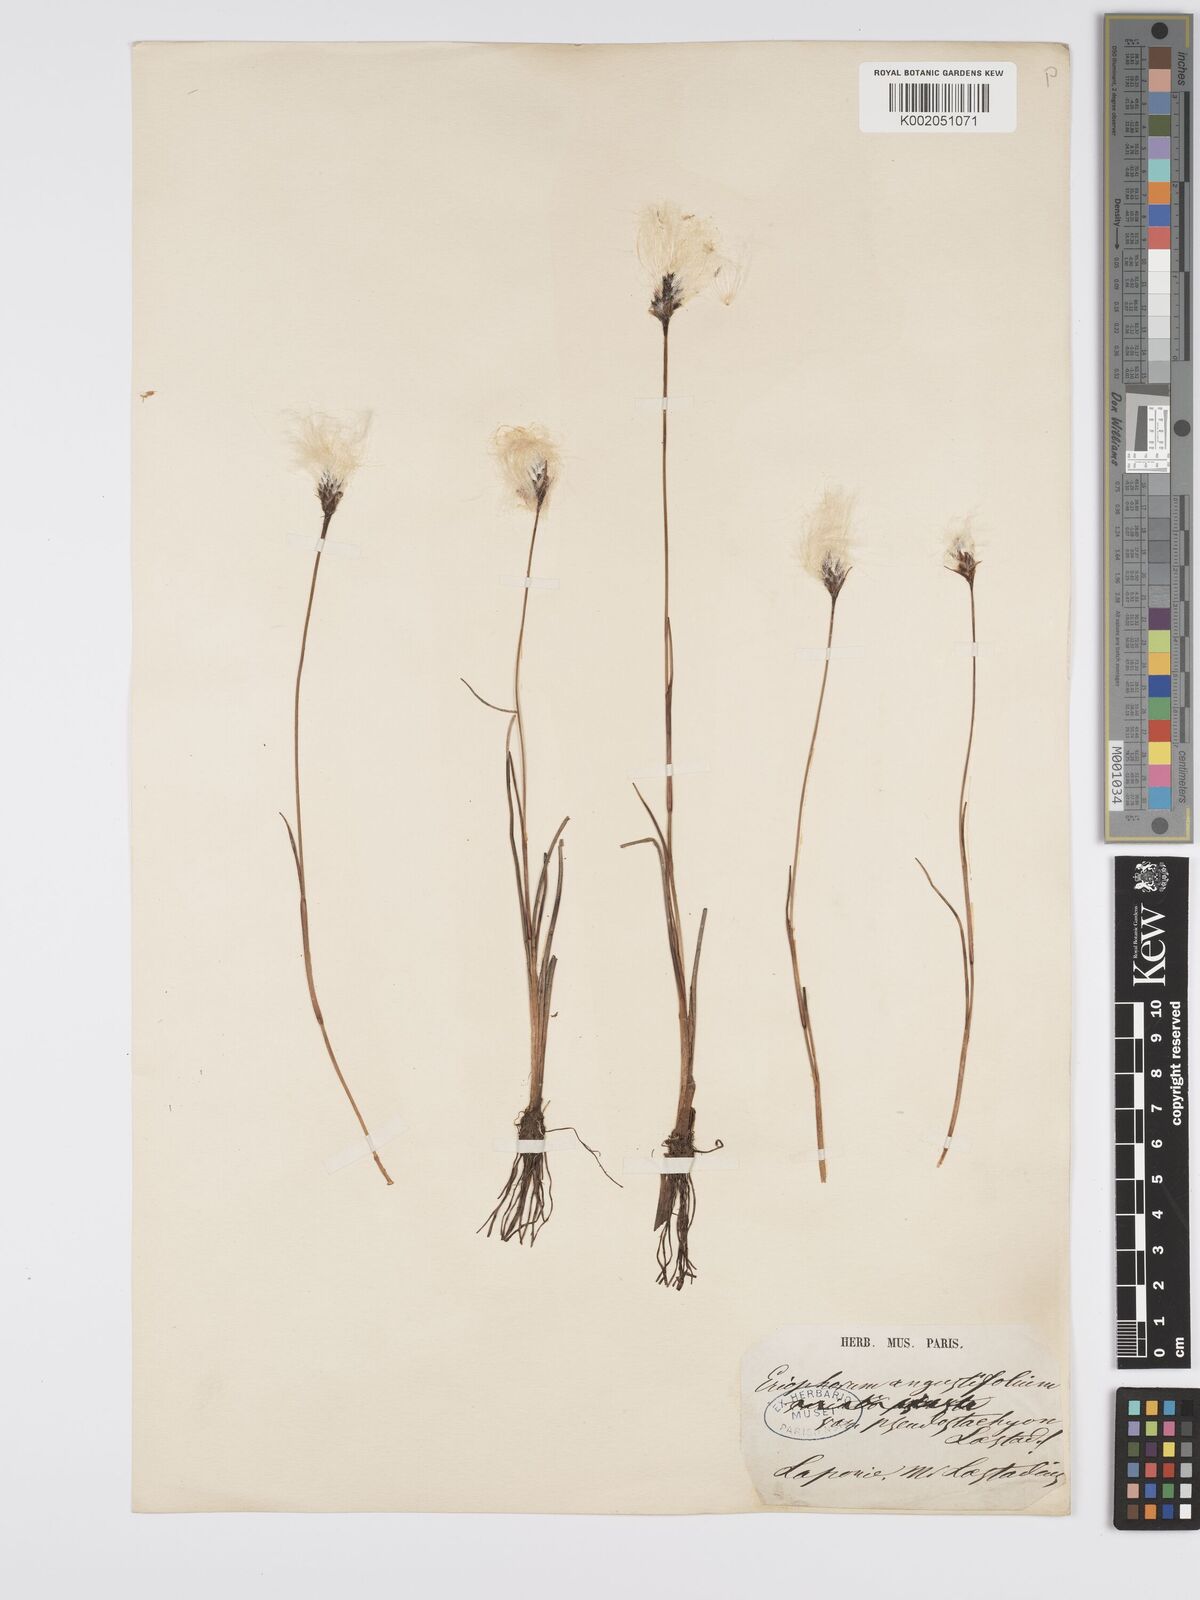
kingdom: Plantae
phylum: Tracheophyta
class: Liliopsida
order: Poales
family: Cyperaceae
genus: Eriophorum
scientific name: Eriophorum angustifolium
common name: Common cottongrass
